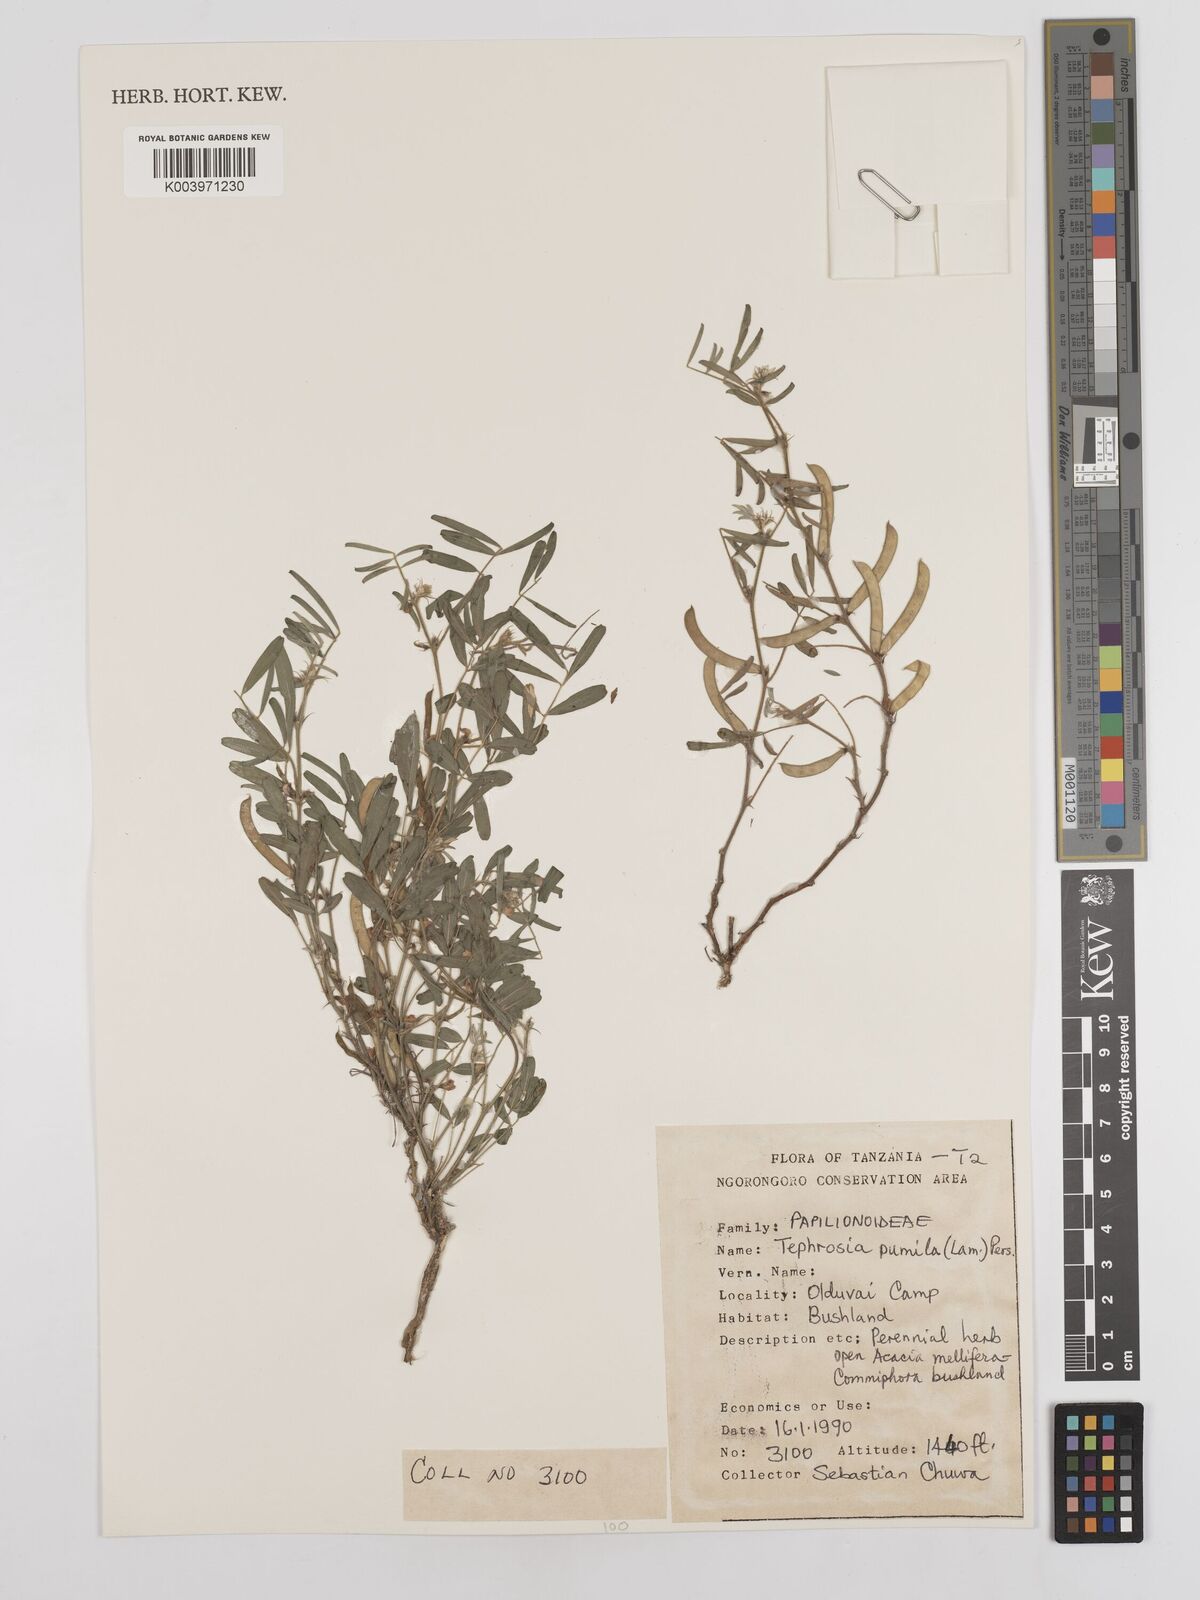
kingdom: Plantae
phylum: Tracheophyta
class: Magnoliopsida
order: Fabales
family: Fabaceae
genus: Tephrosia
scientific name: Tephrosia pumila
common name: Indigo sauvage
